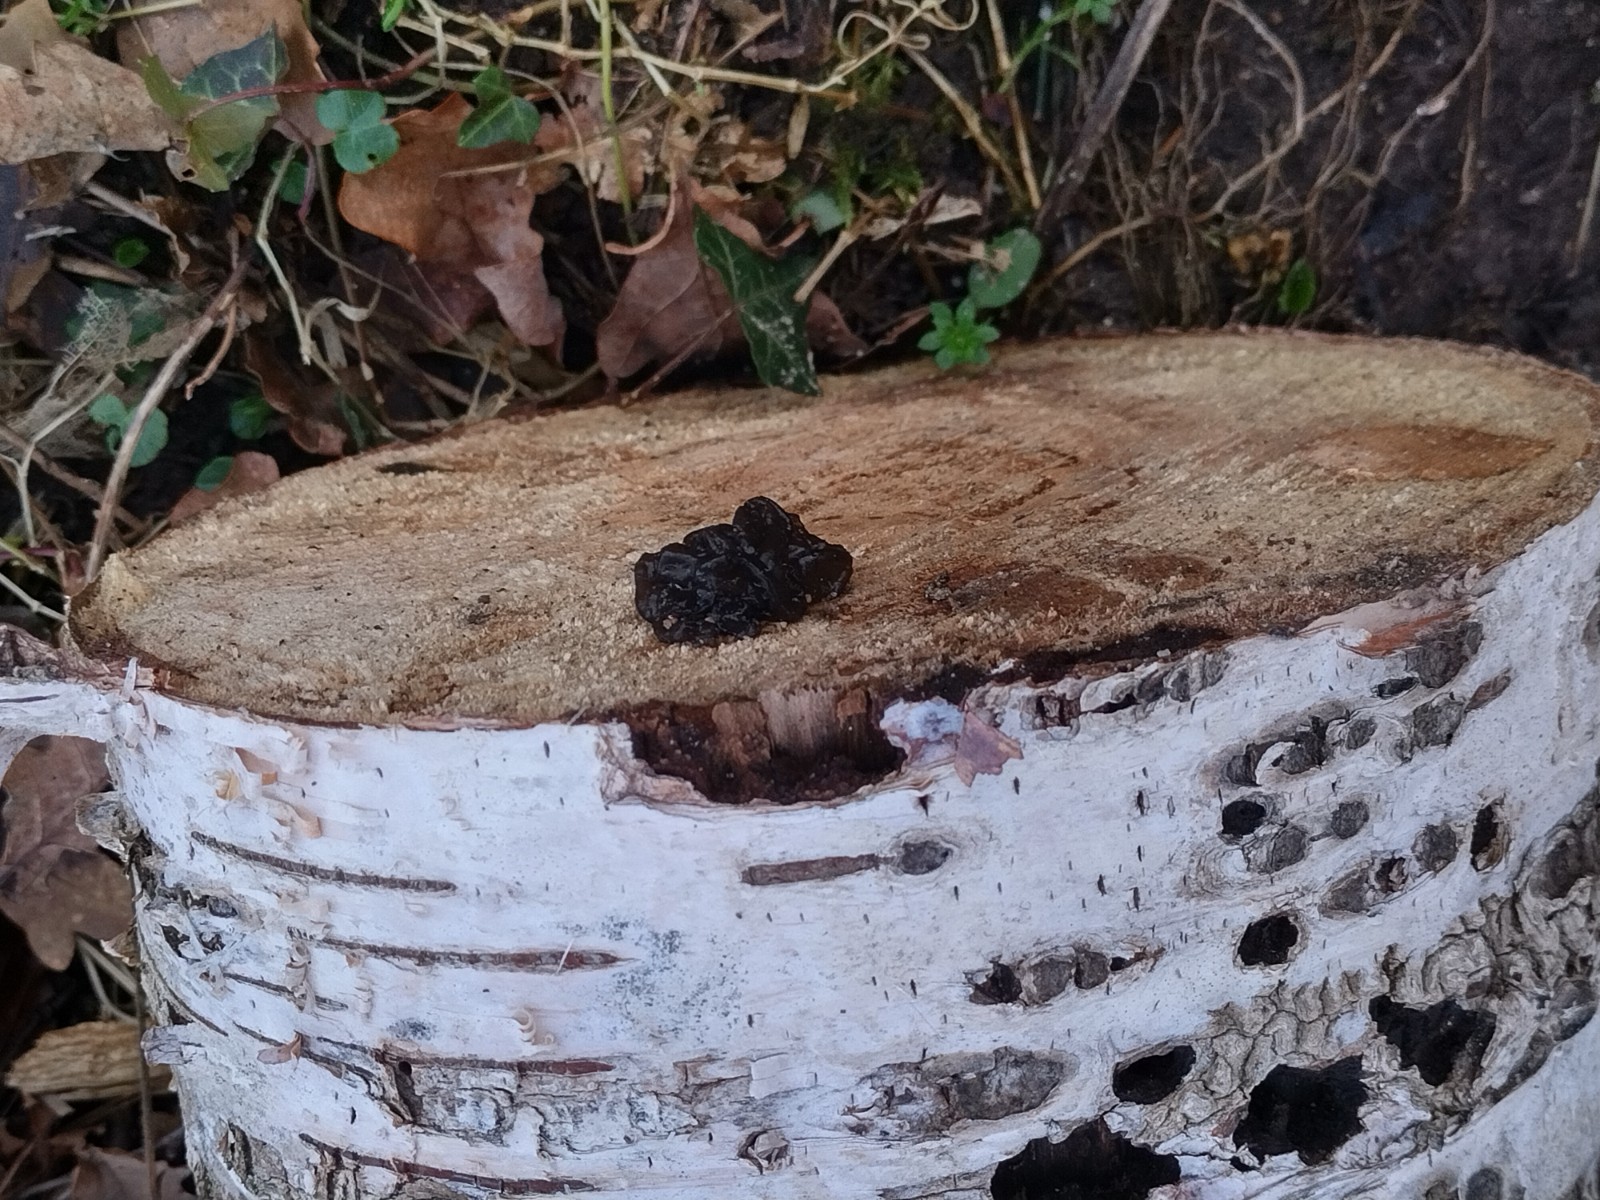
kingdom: Fungi
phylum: Basidiomycota
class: Agaricomycetes
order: Auriculariales
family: Auriculariaceae
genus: Exidia
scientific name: Exidia nigricans
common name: almindelig bævretop
